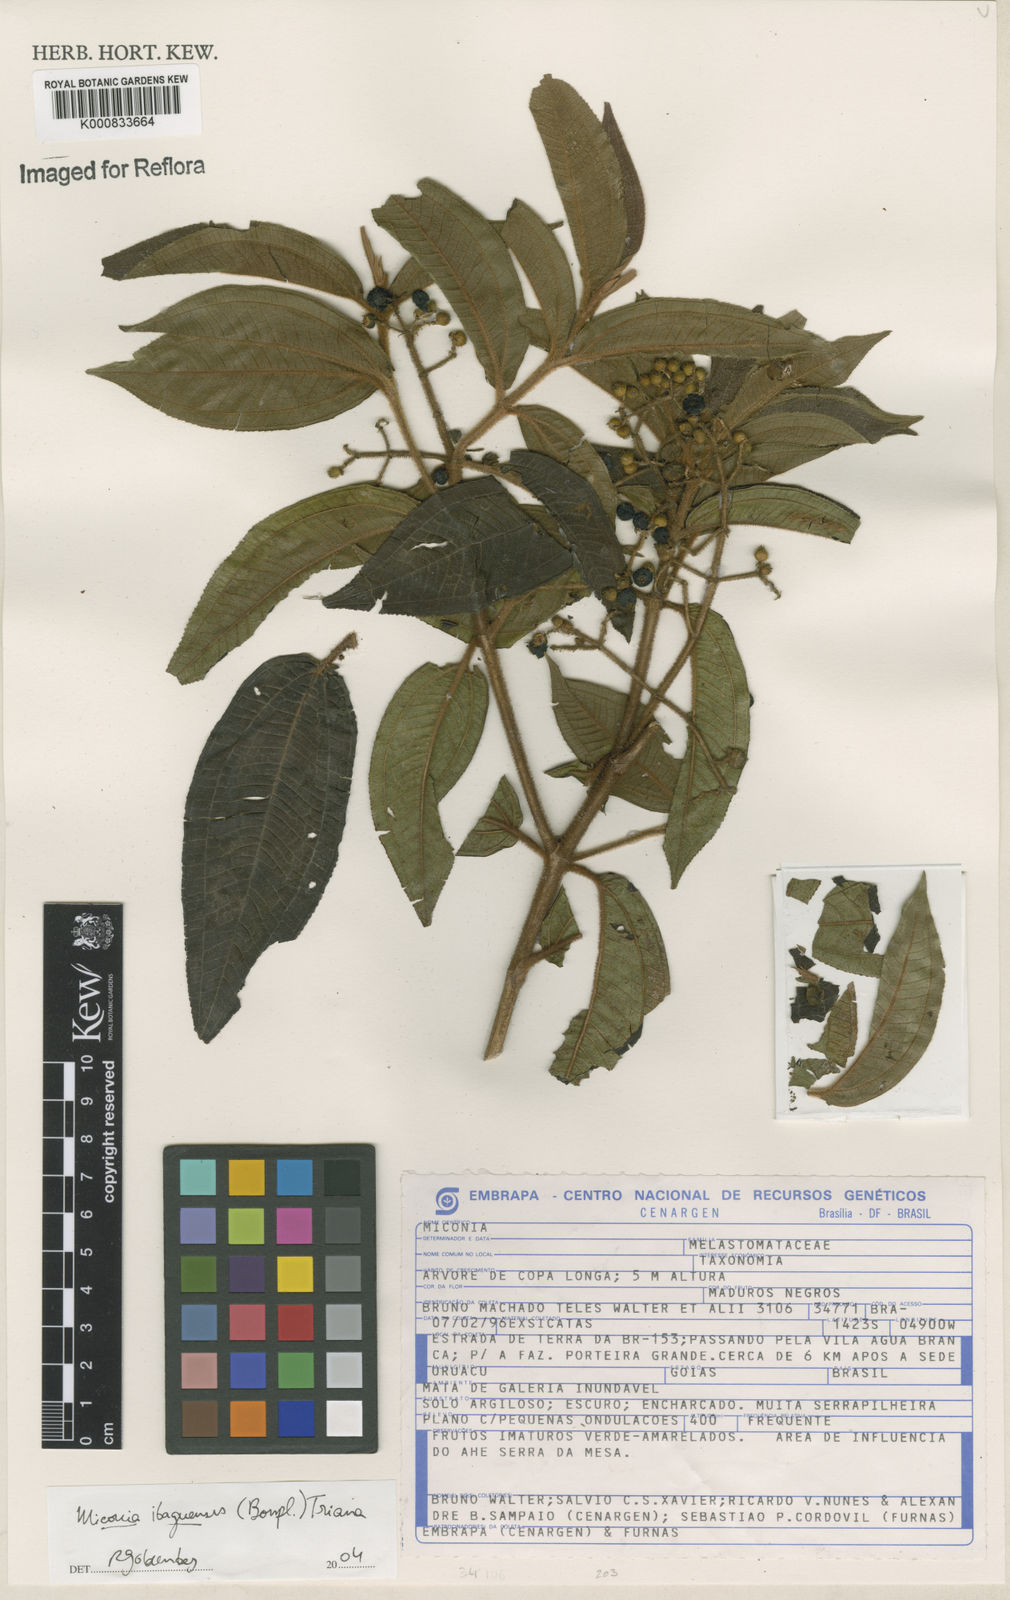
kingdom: Plantae
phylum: Tracheophyta
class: Magnoliopsida
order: Myrtales
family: Melastomataceae
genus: Miconia
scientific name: Miconia ibaguensis
